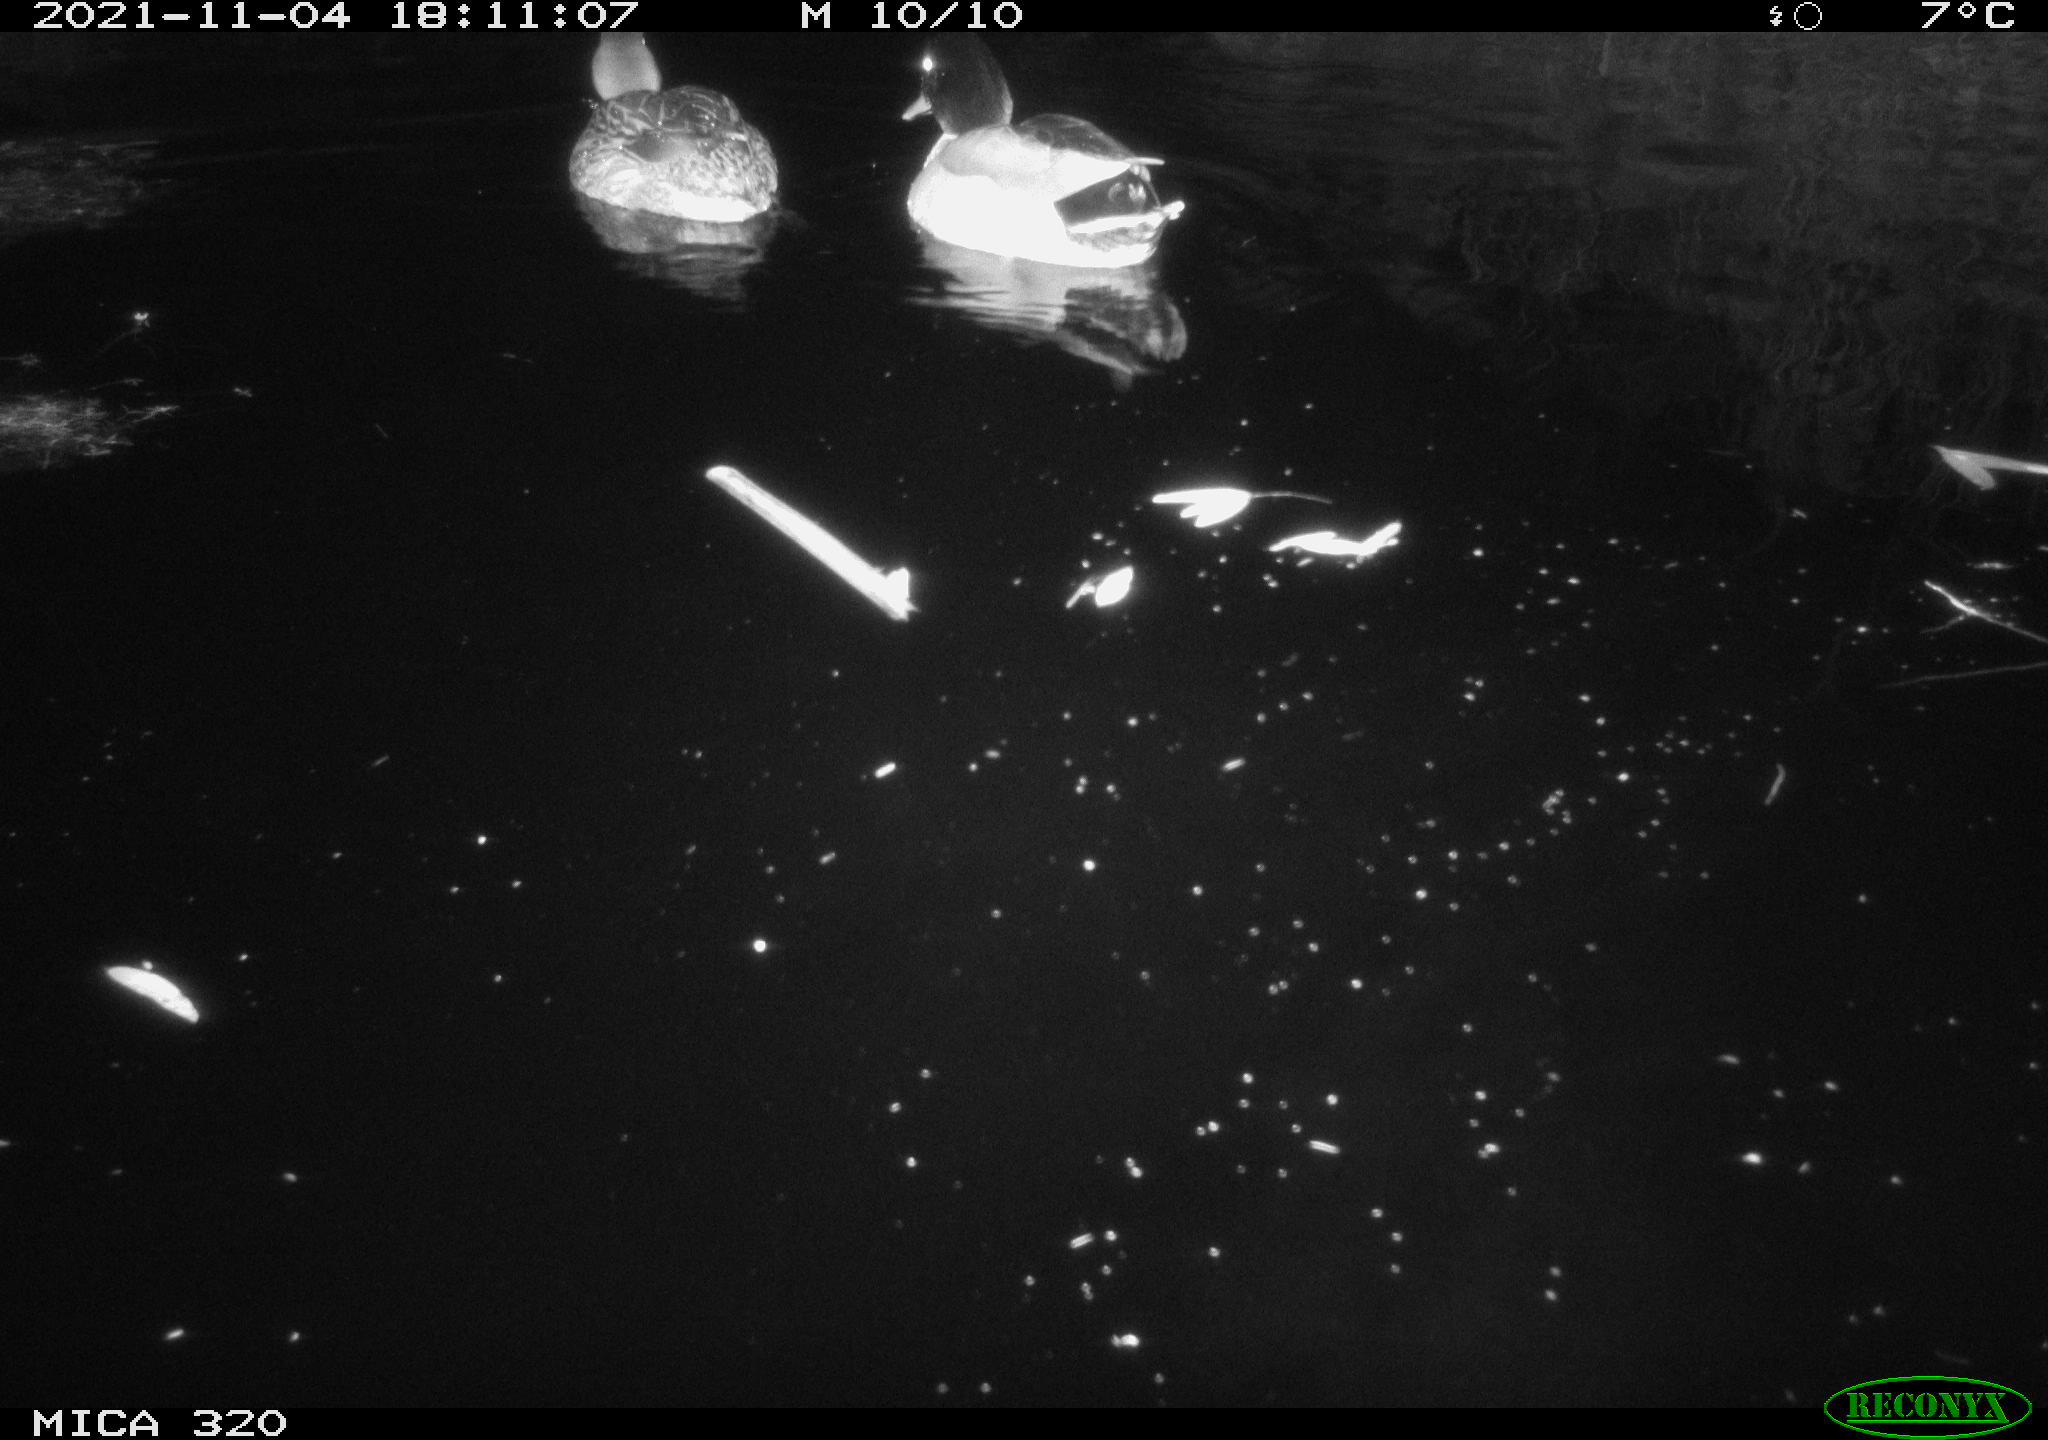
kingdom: Animalia
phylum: Chordata
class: Aves
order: Anseriformes
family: Anatidae
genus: Anas
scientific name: Anas platyrhynchos
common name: Mallard
